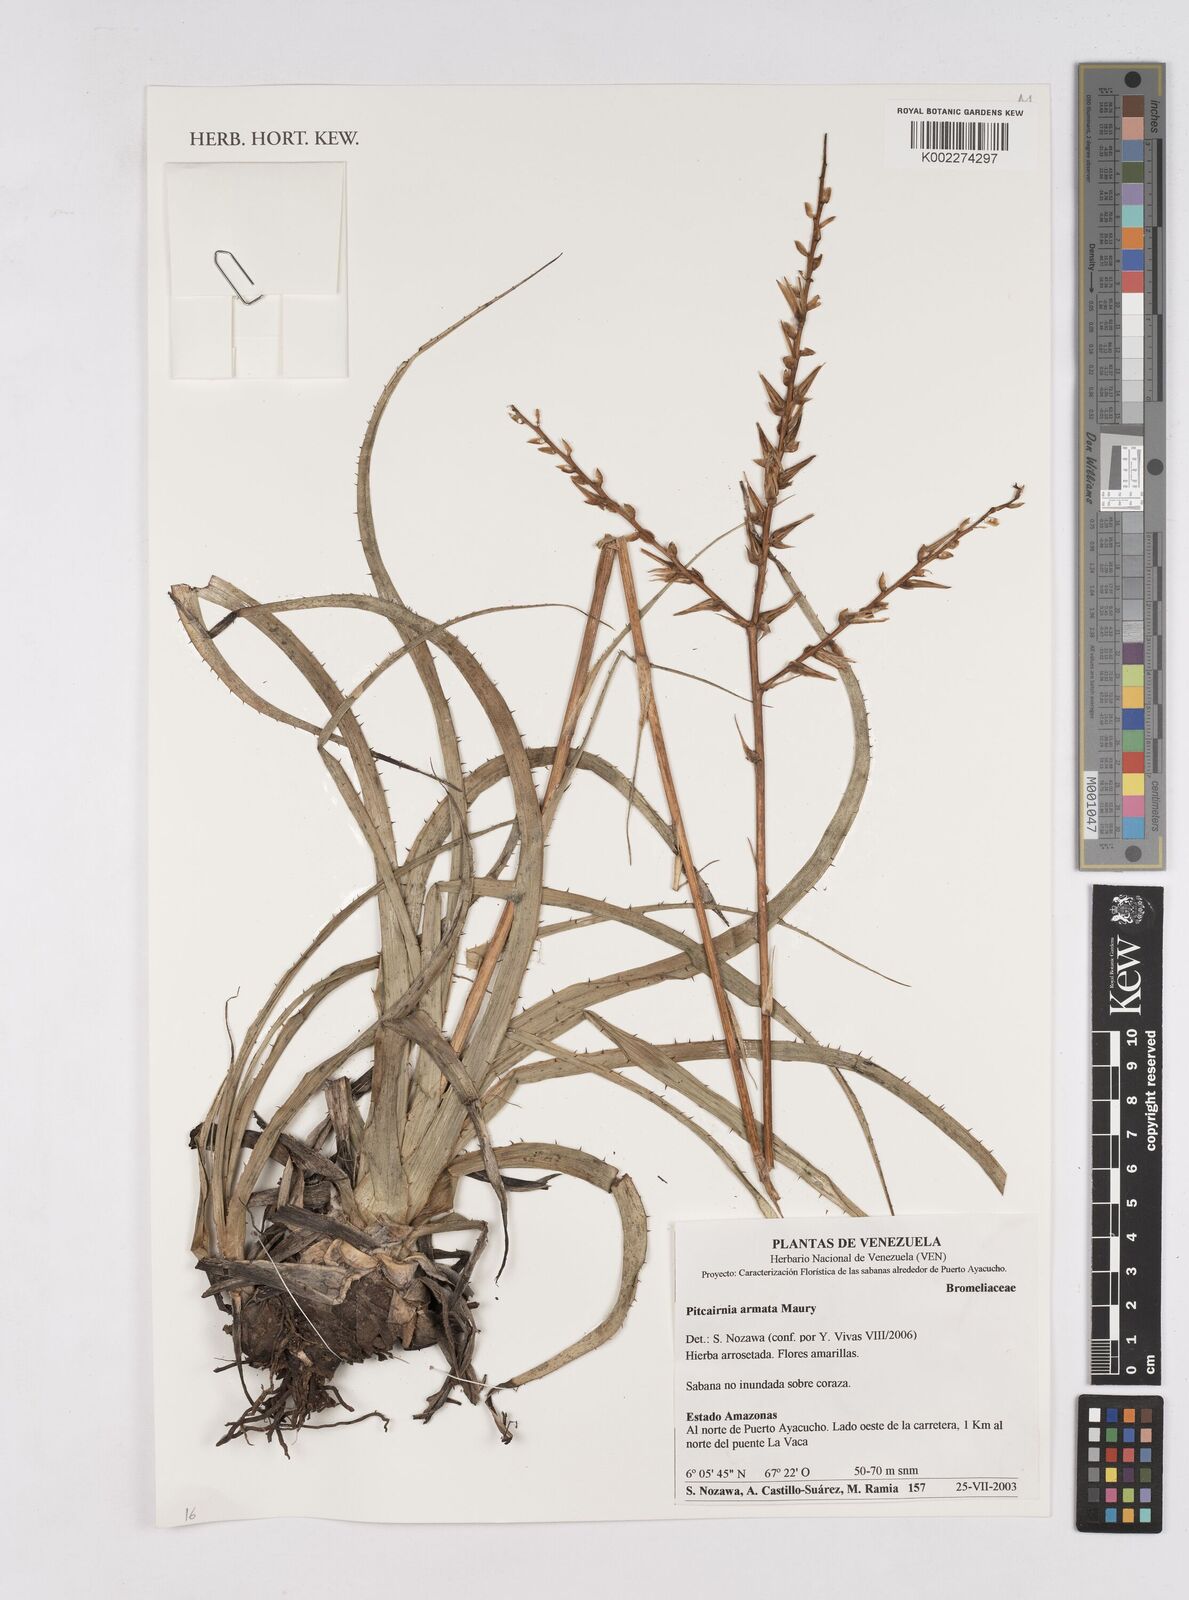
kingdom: Plantae
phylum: Tracheophyta
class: Liliopsida
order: Poales
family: Bromeliaceae
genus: Pitcairnia
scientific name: Pitcairnia armata
